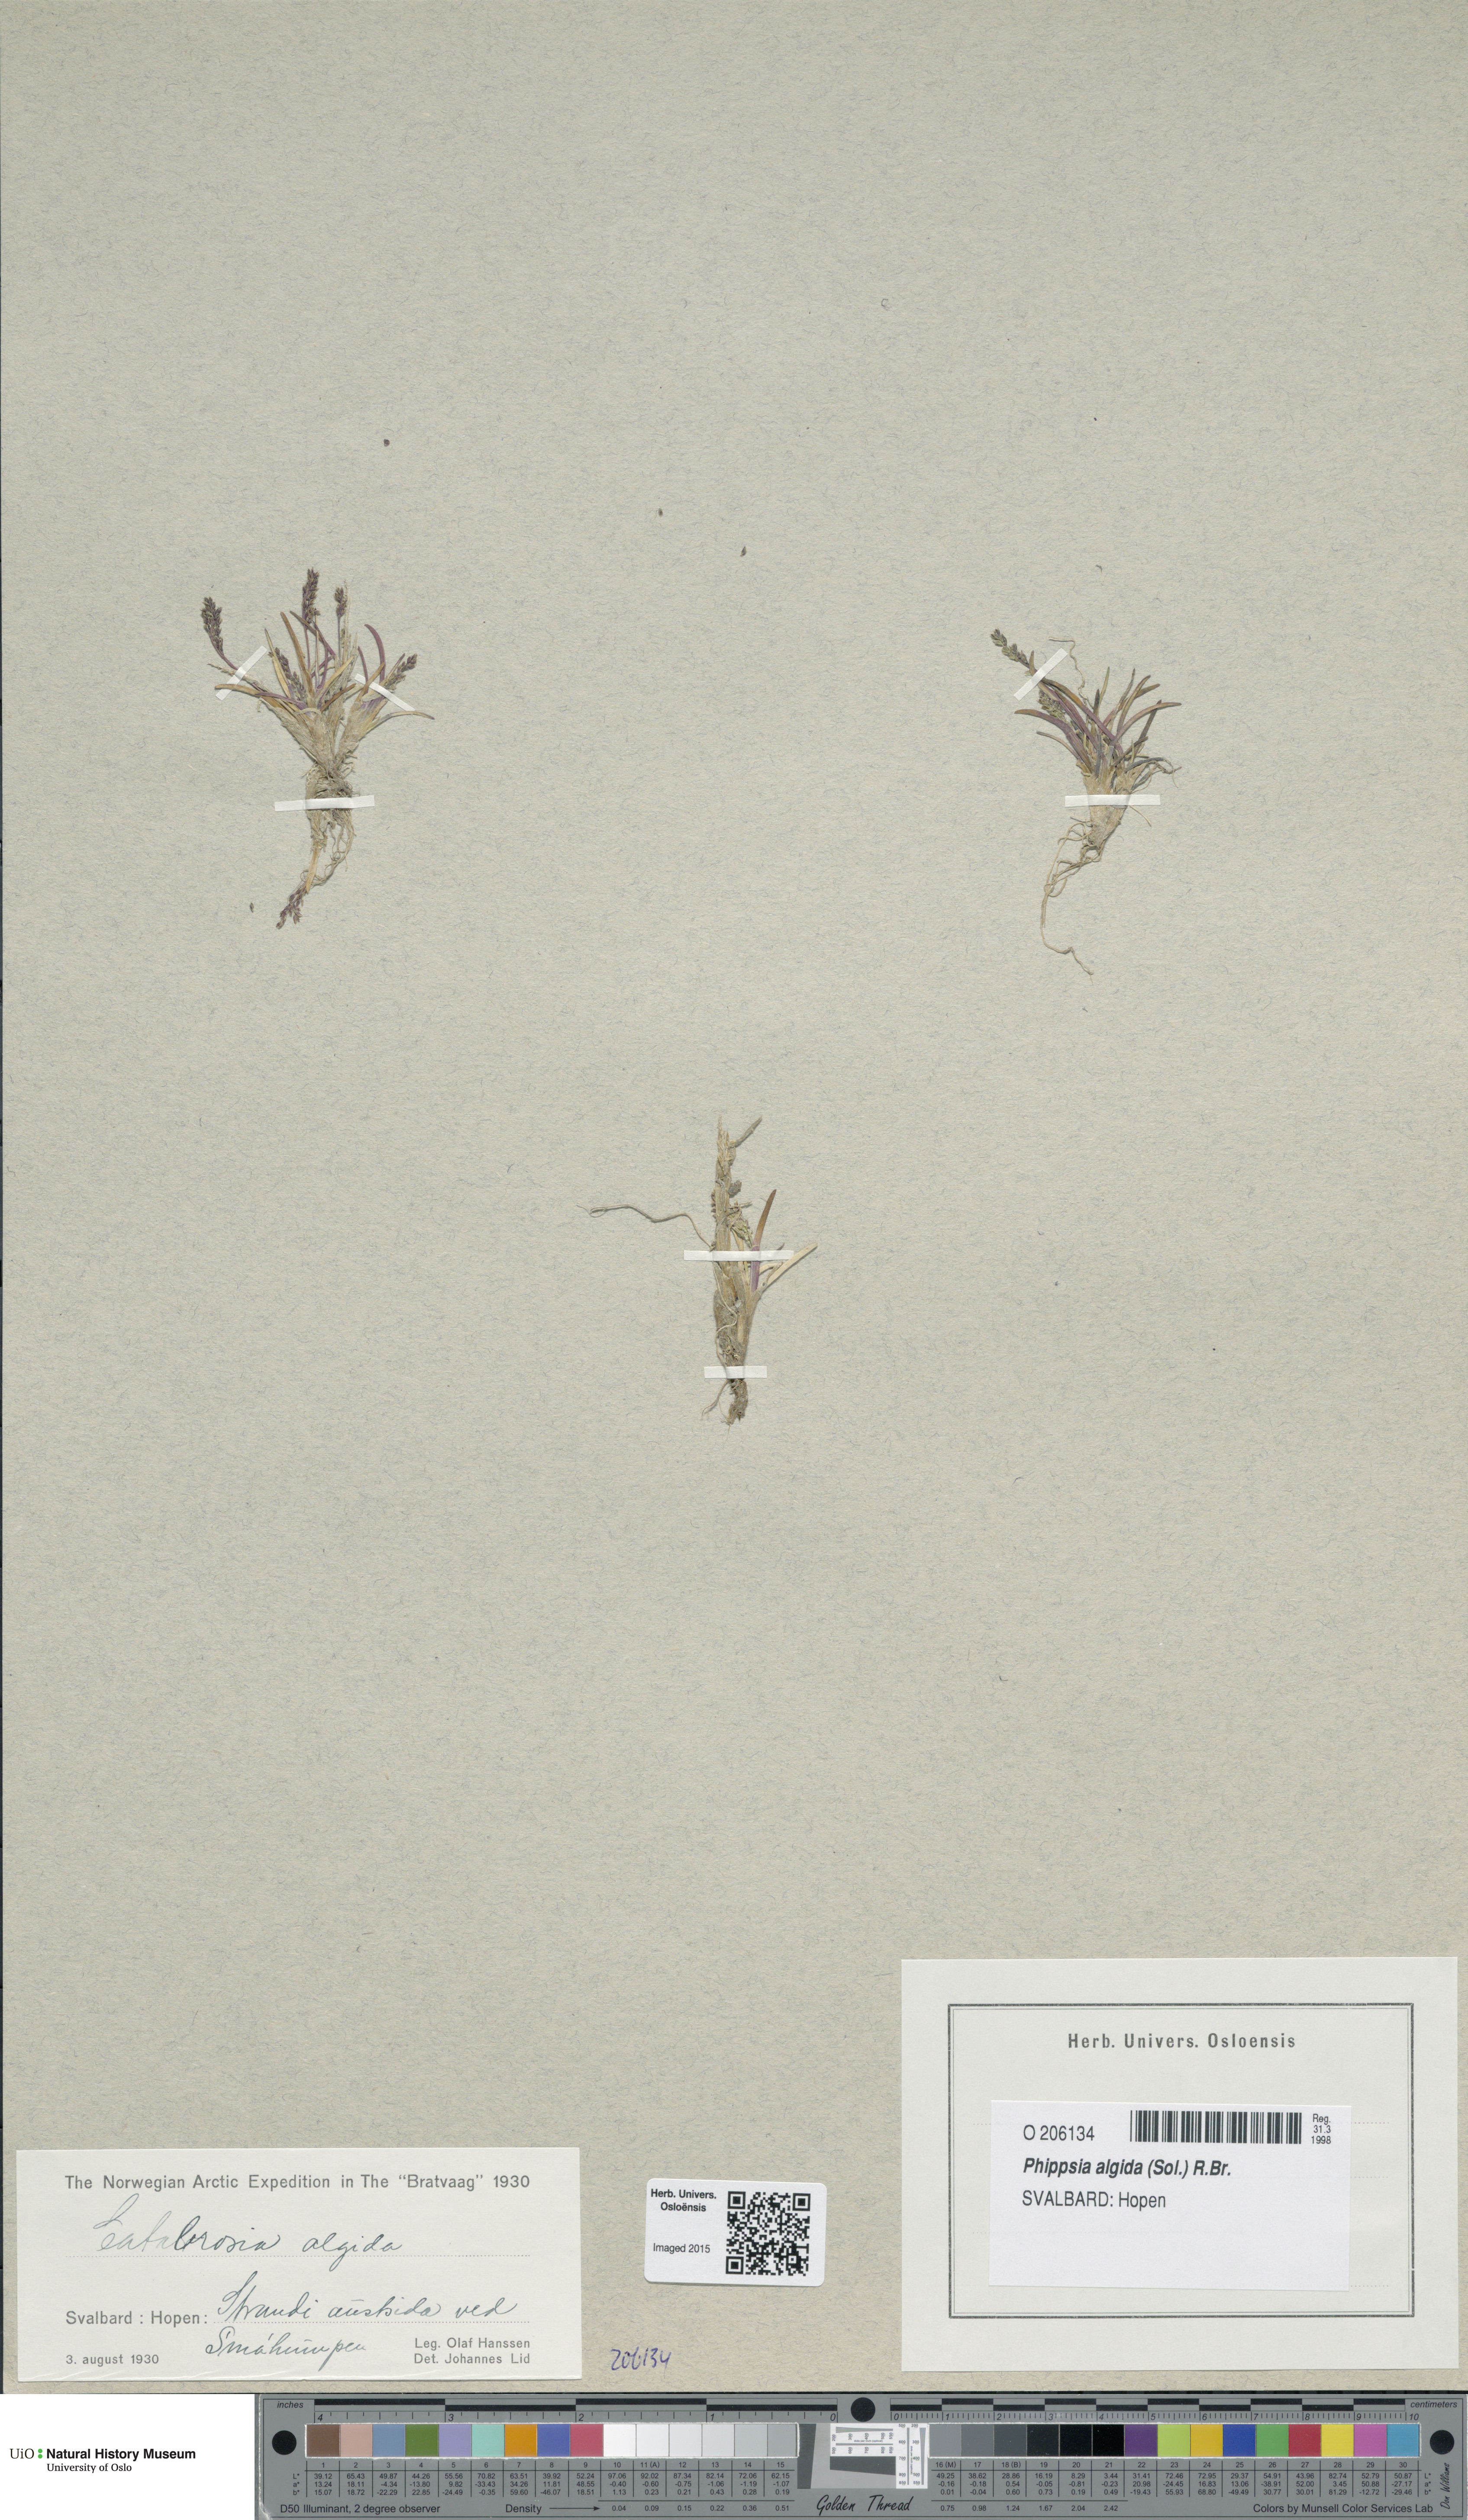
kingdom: Plantae
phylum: Tracheophyta
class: Liliopsida
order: Poales
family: Poaceae
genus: Phippsia
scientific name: Phippsia algida
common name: Ice grass
